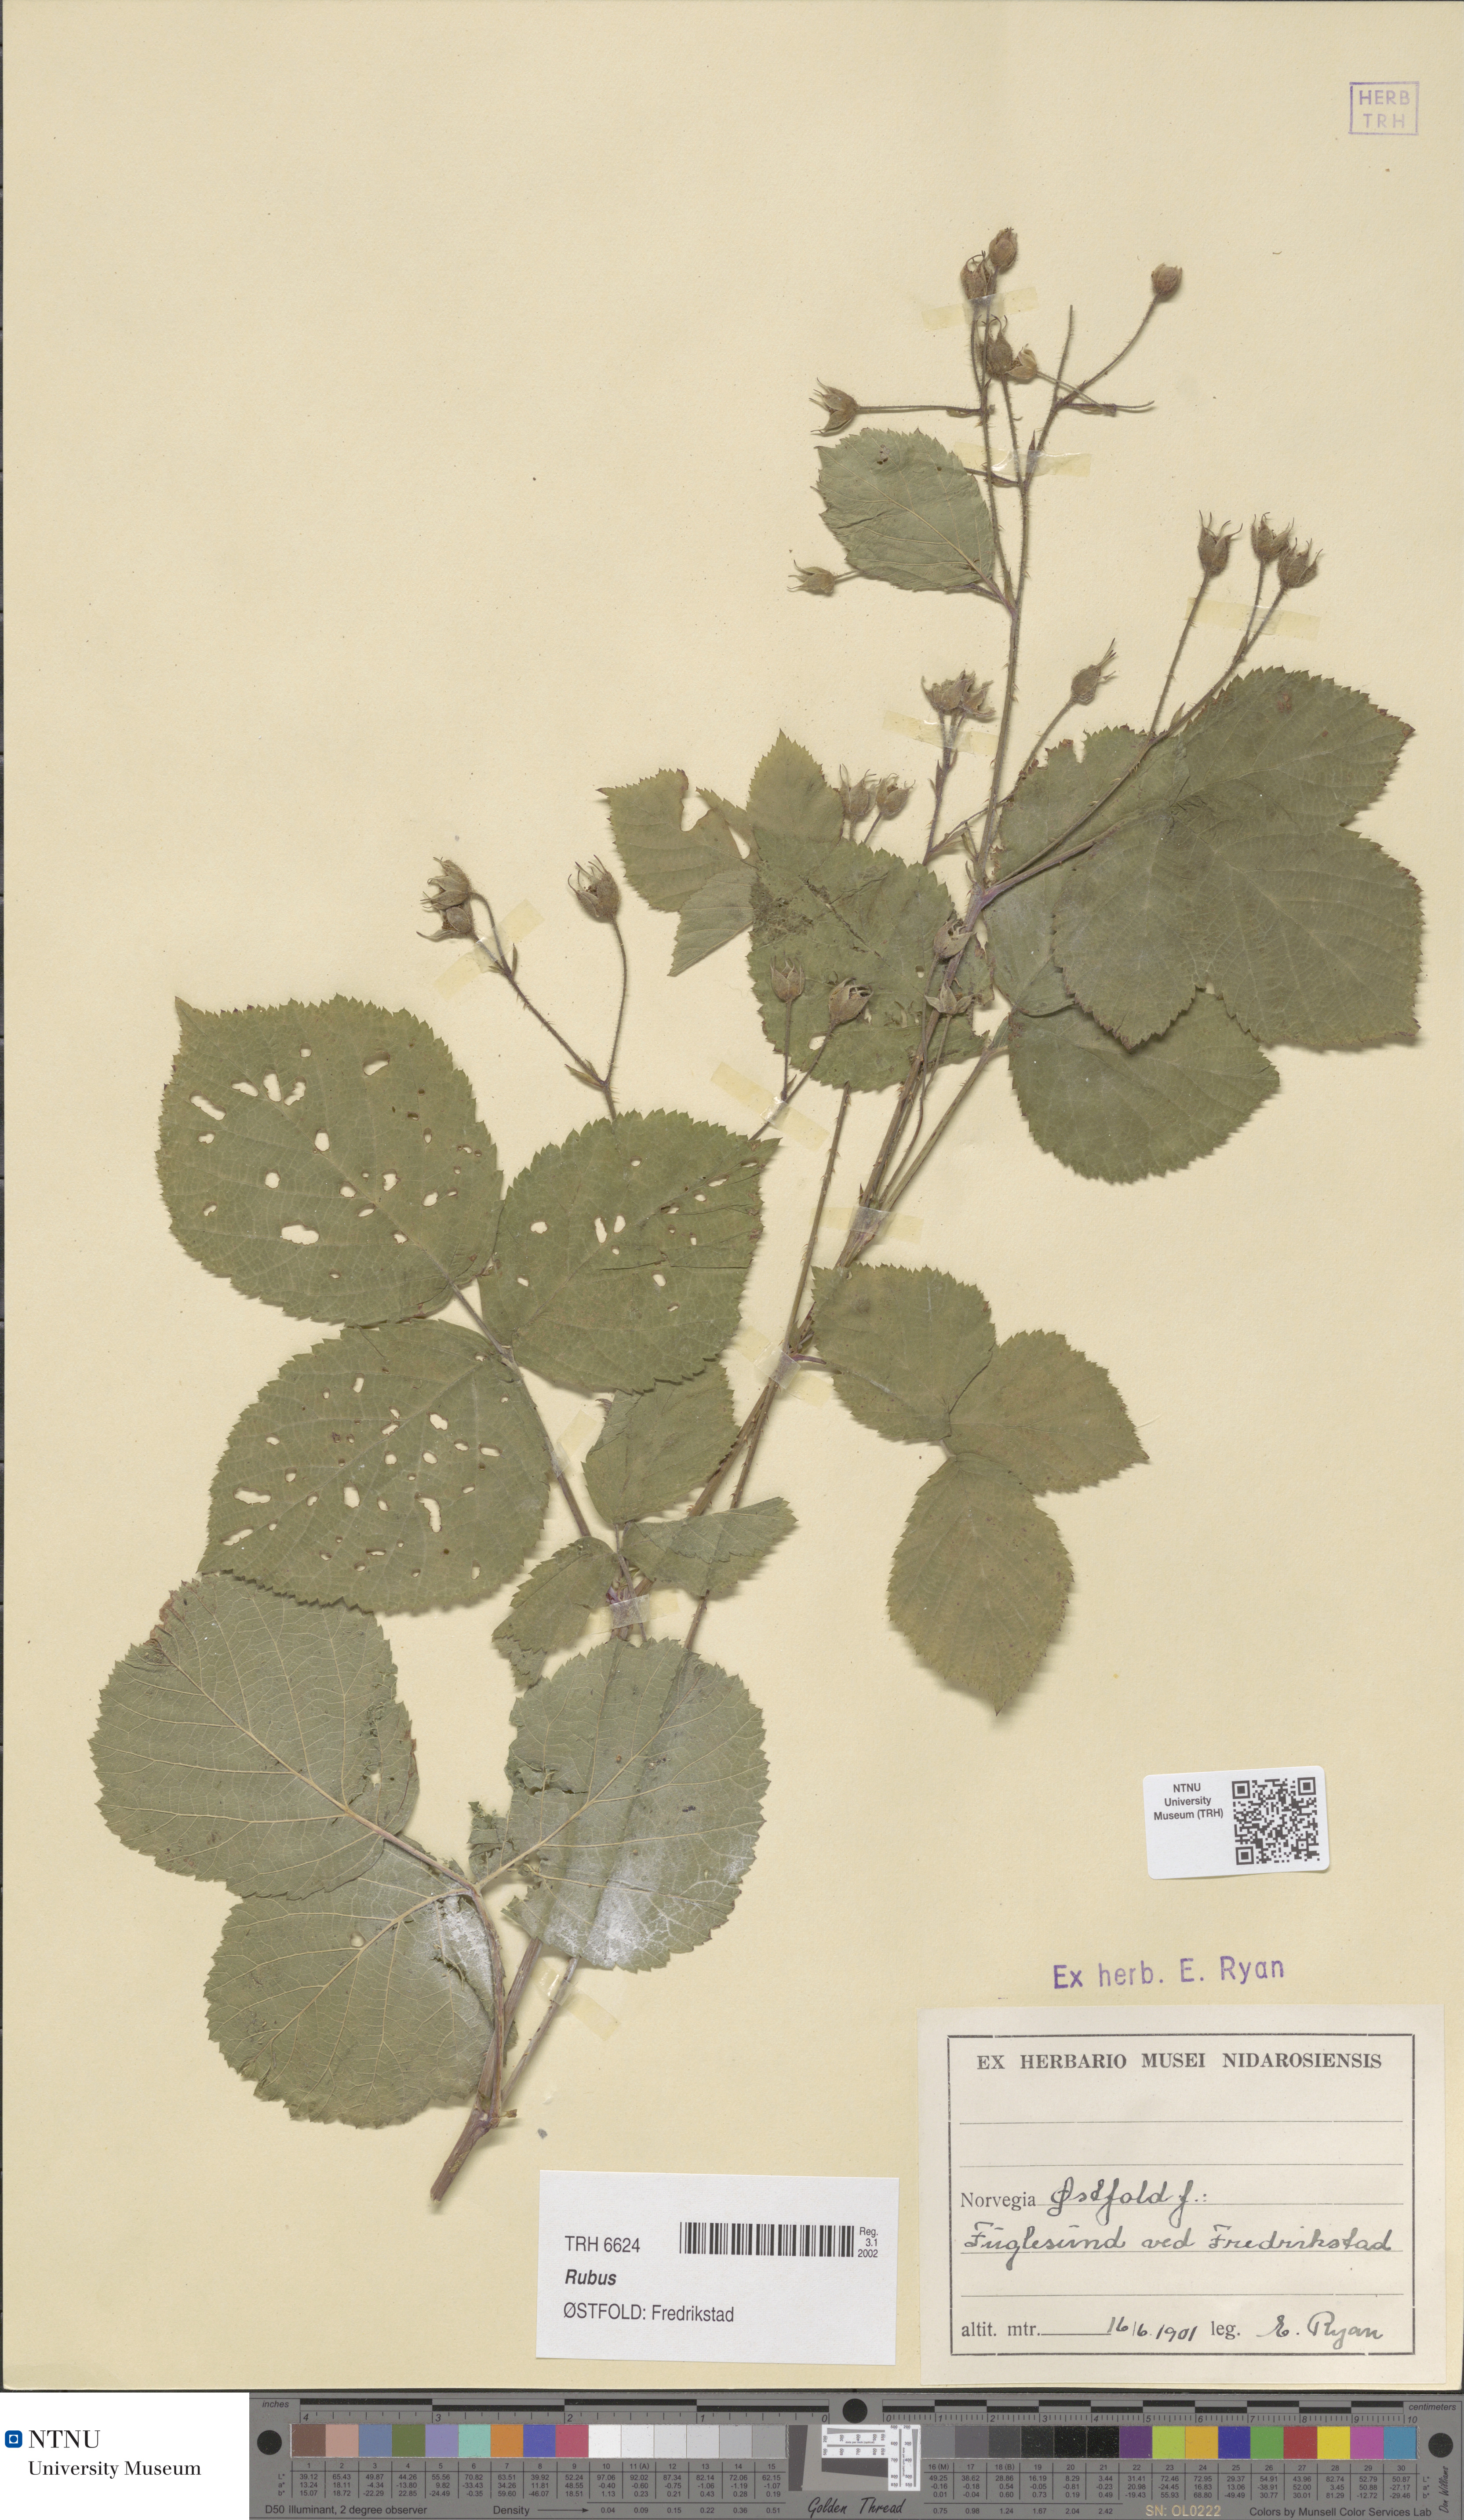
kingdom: Plantae
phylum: Tracheophyta
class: Magnoliopsida
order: Rosales
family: Rosaceae
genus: Rubus
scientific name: Rubus
